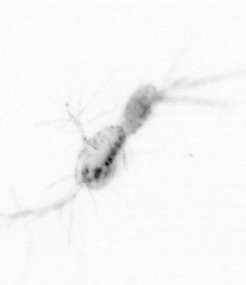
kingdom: Animalia
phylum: Arthropoda
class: Copepoda
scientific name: Copepoda
